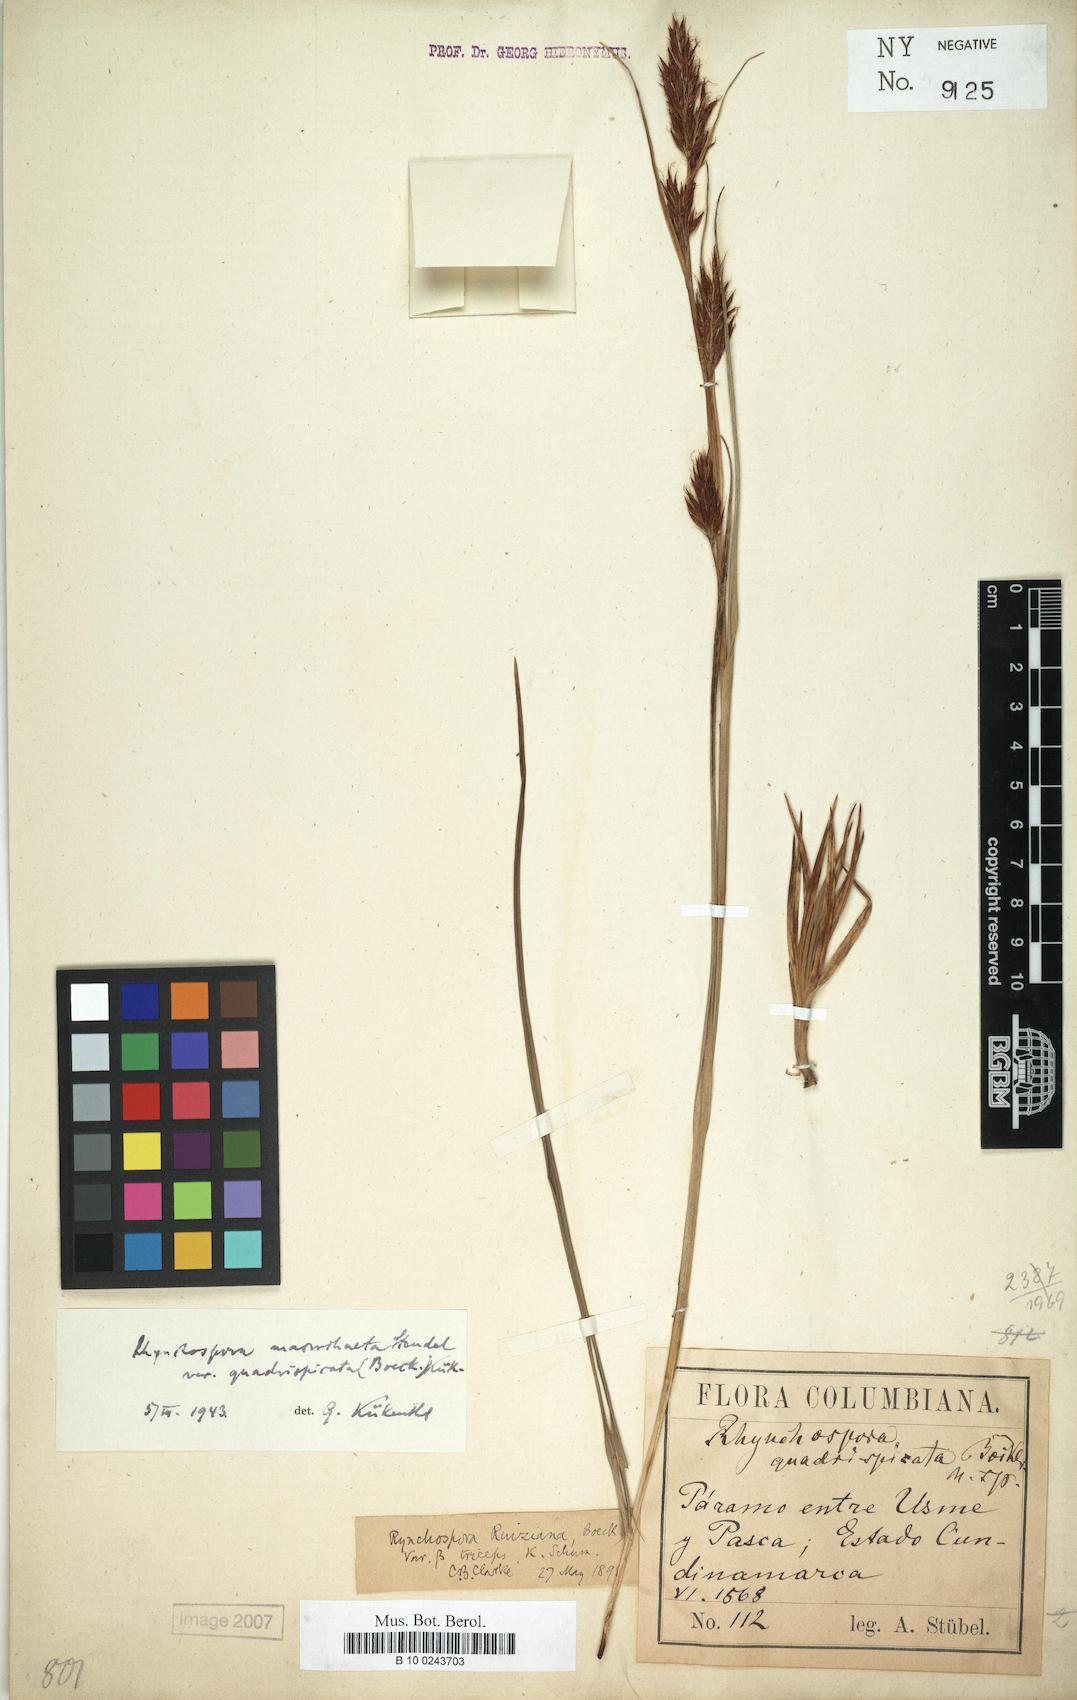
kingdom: Plantae
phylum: Tracheophyta
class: Liliopsida
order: Poales
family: Cyperaceae
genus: Rhynchospora
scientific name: Rhynchospora ruiziana
